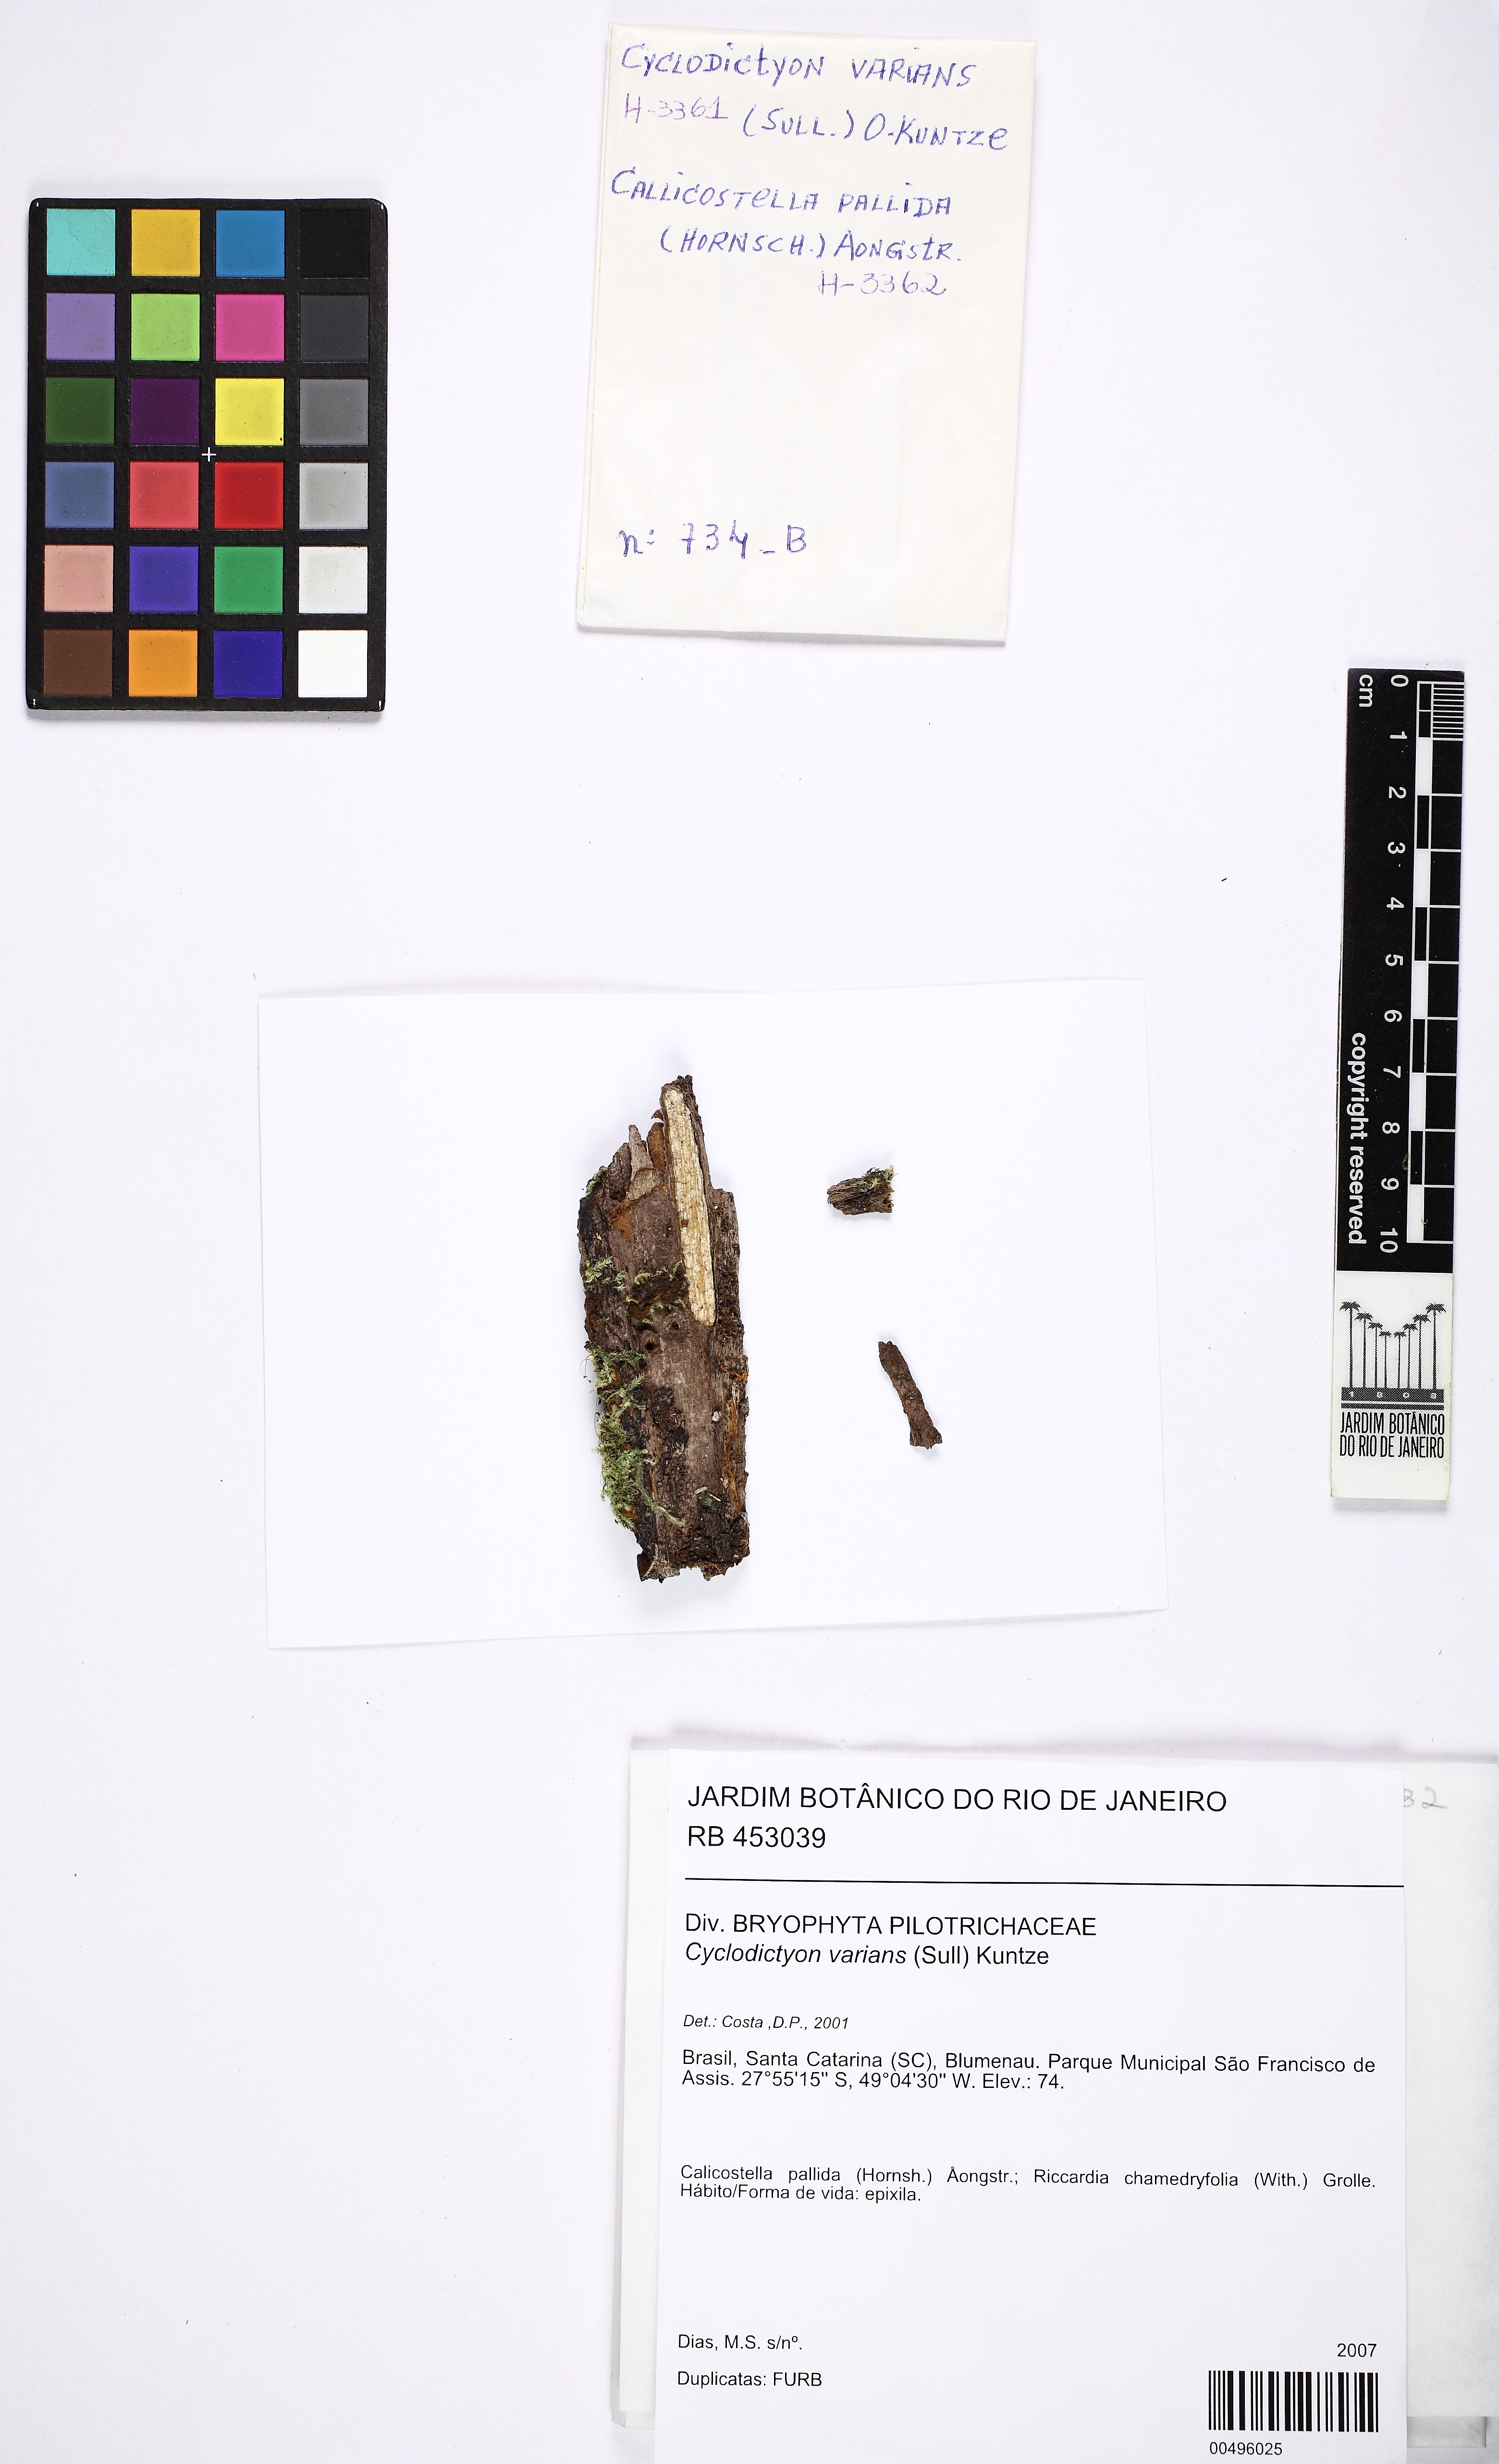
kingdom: Plantae
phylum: Bryophyta
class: Bryopsida
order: Hookeriales
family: Pilotrichaceae
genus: Cyclodictyon
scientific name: Cyclodictyon varians
